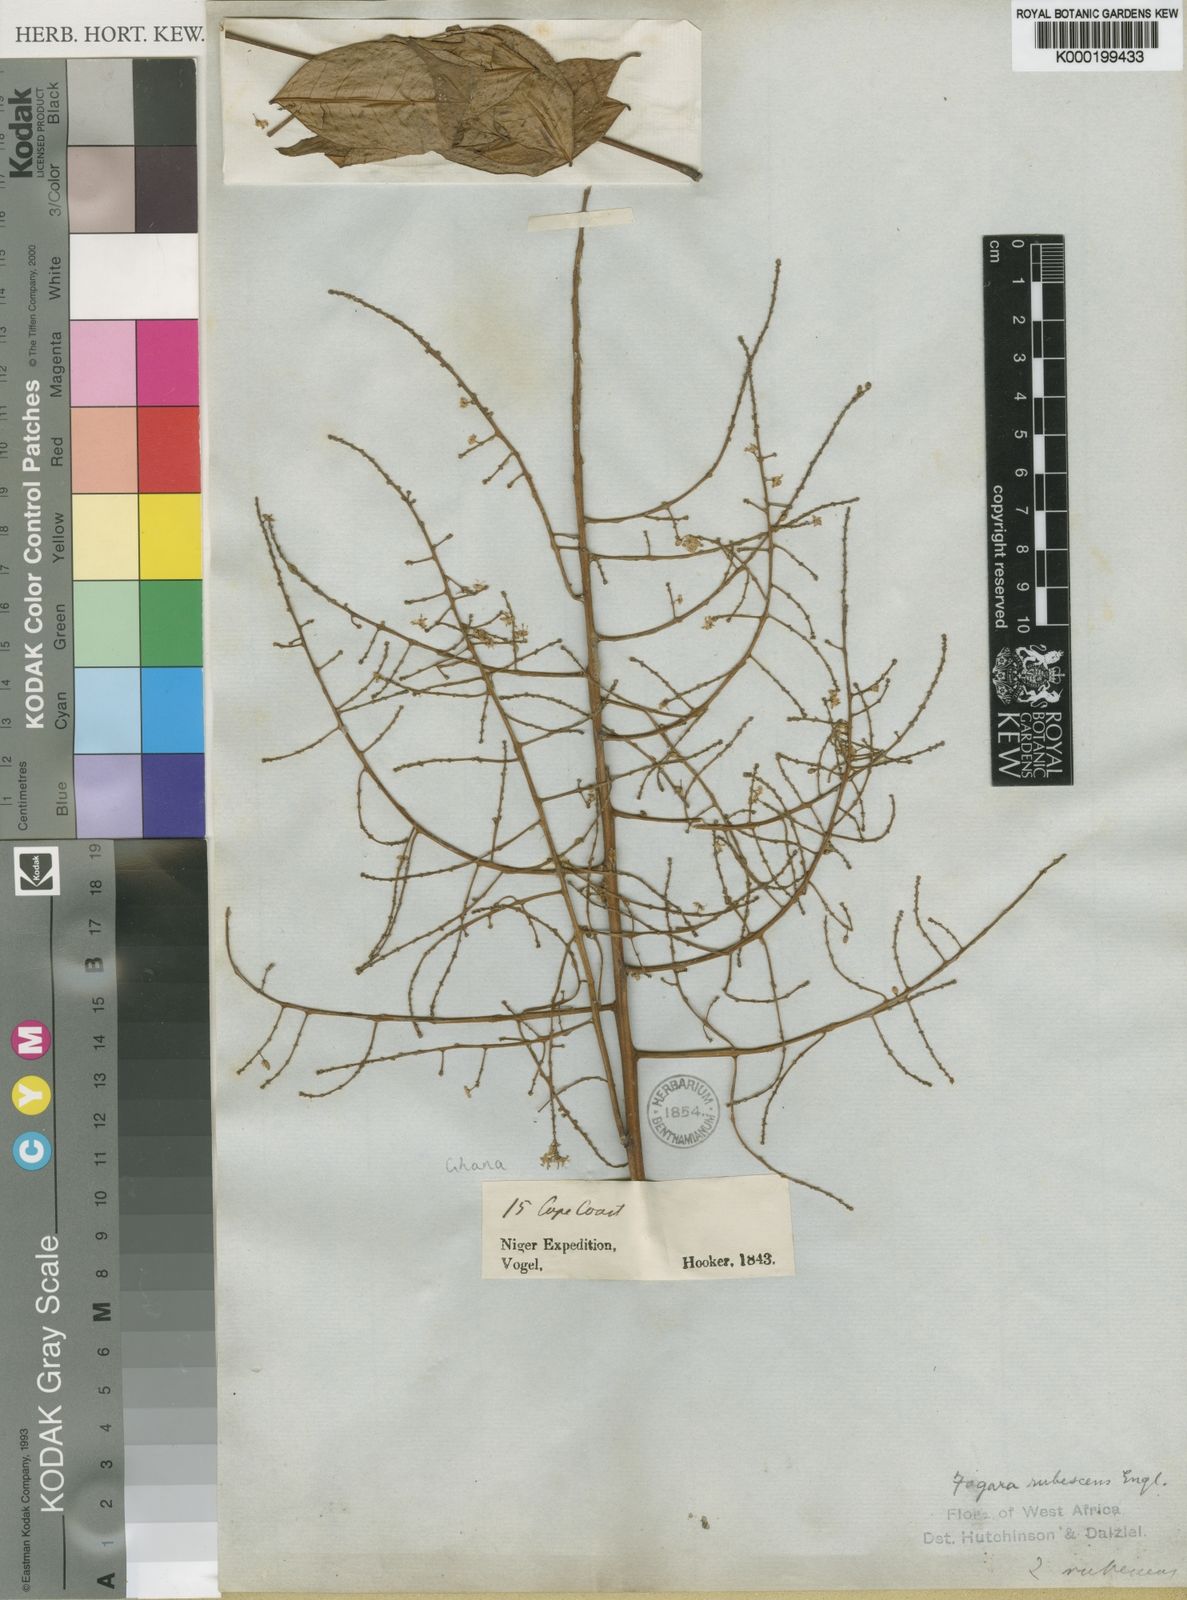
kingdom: Plantae
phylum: Tracheophyta
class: Magnoliopsida
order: Sapindales
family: Rutaceae
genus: Zanthoxylum
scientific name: Zanthoxylum
